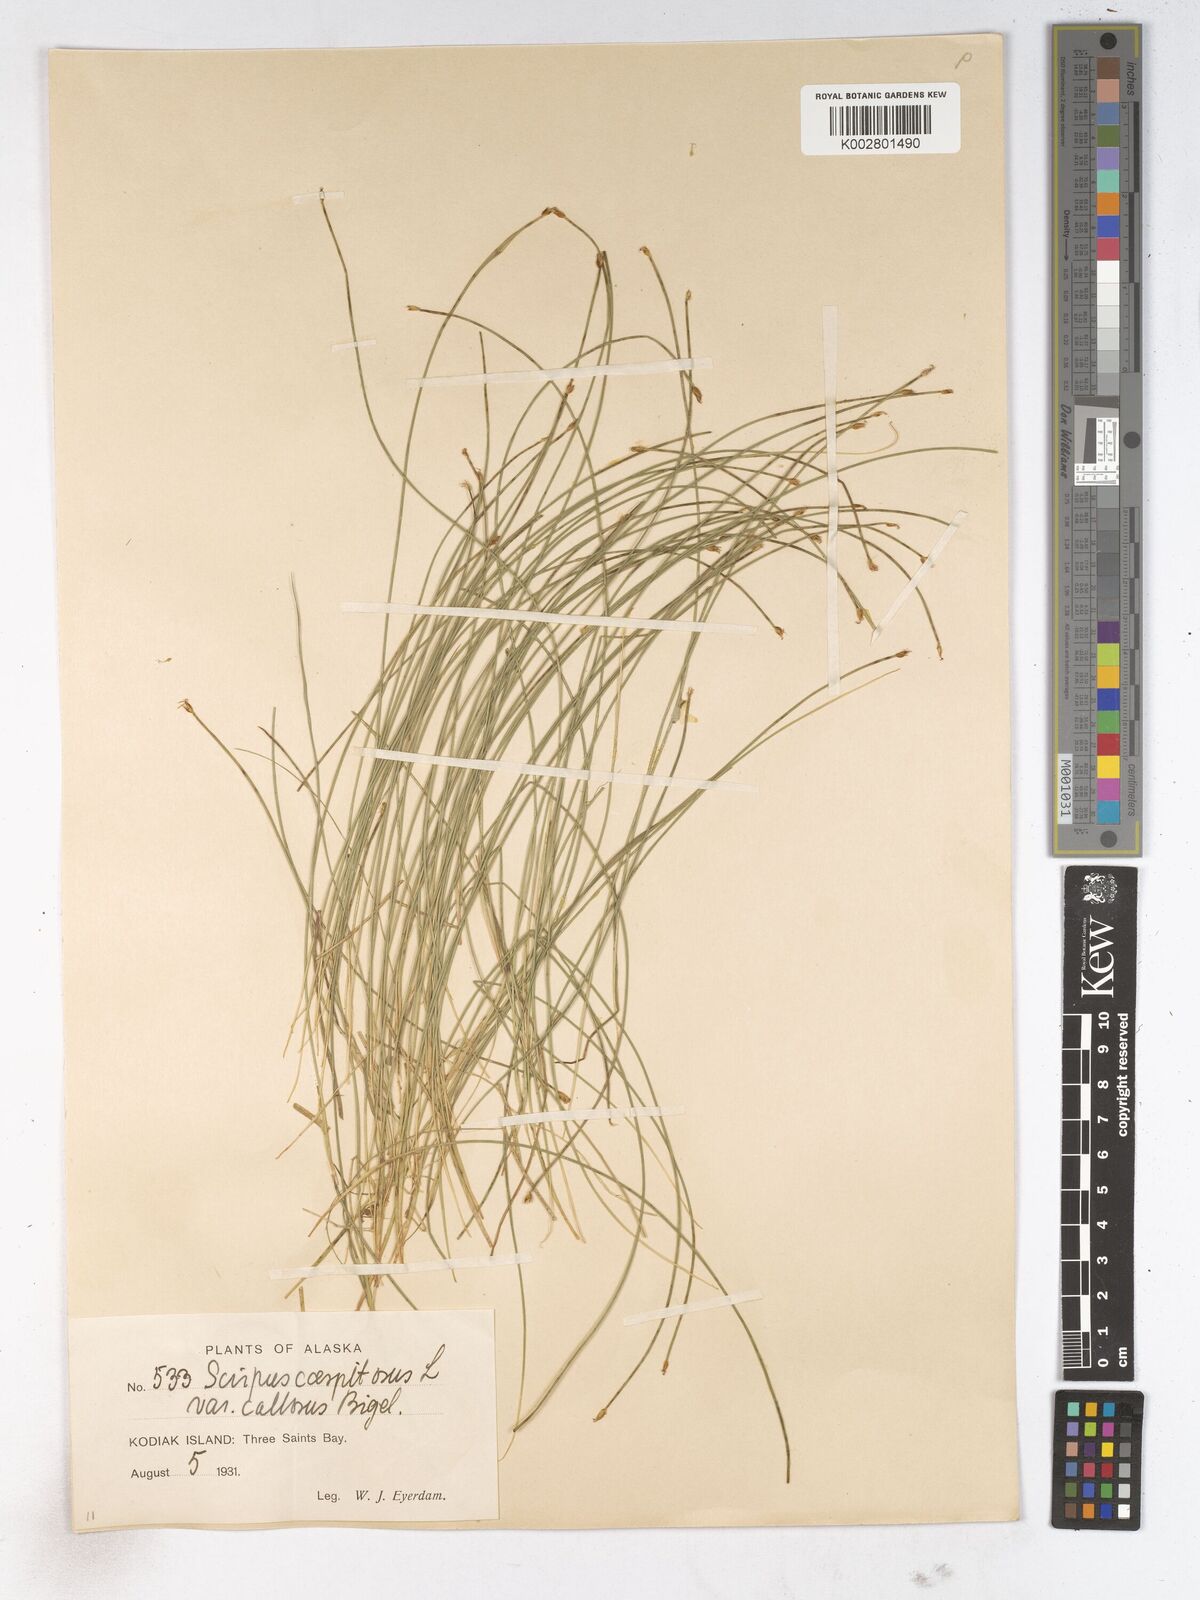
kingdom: Plantae
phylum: Tracheophyta
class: Liliopsida
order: Poales
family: Cyperaceae
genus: Trichophorum
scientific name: Trichophorum cespitosum
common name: Cespitose bulrush
